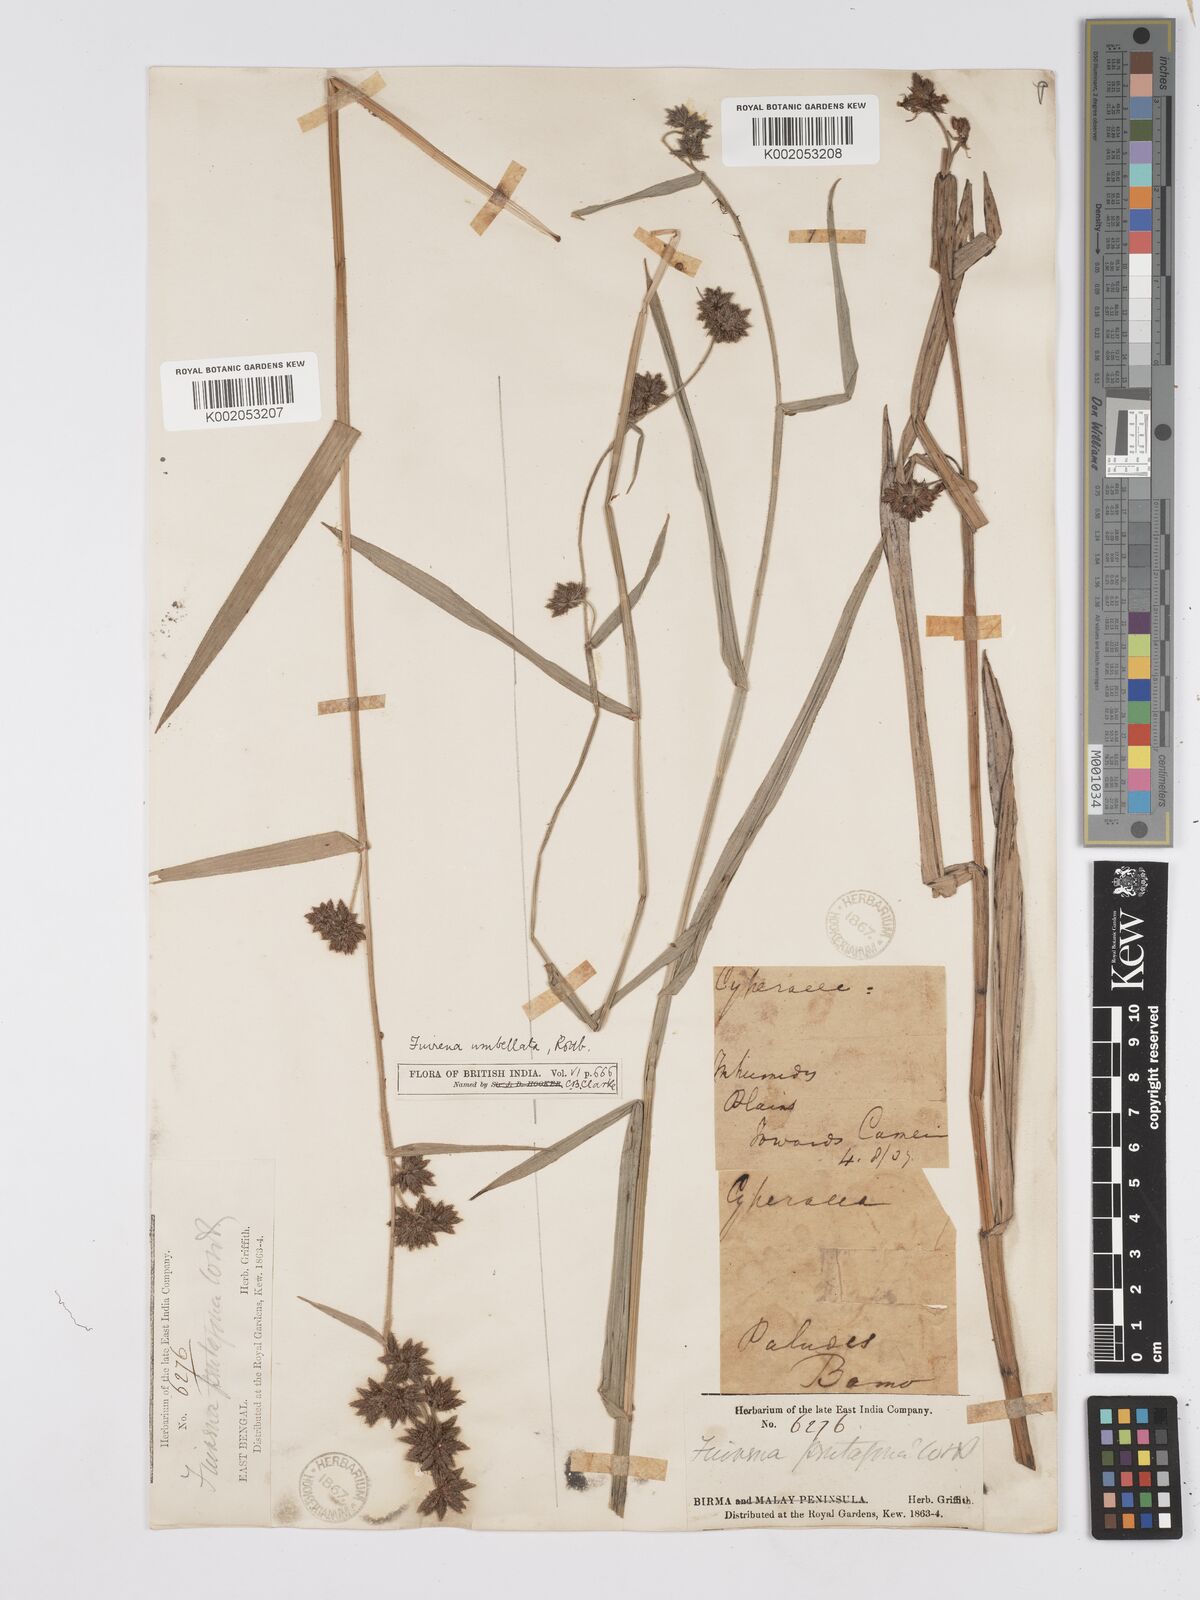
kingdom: Plantae
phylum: Tracheophyta
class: Liliopsida
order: Poales
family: Cyperaceae
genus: Fuirena
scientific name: Fuirena umbellata
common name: Yefen
